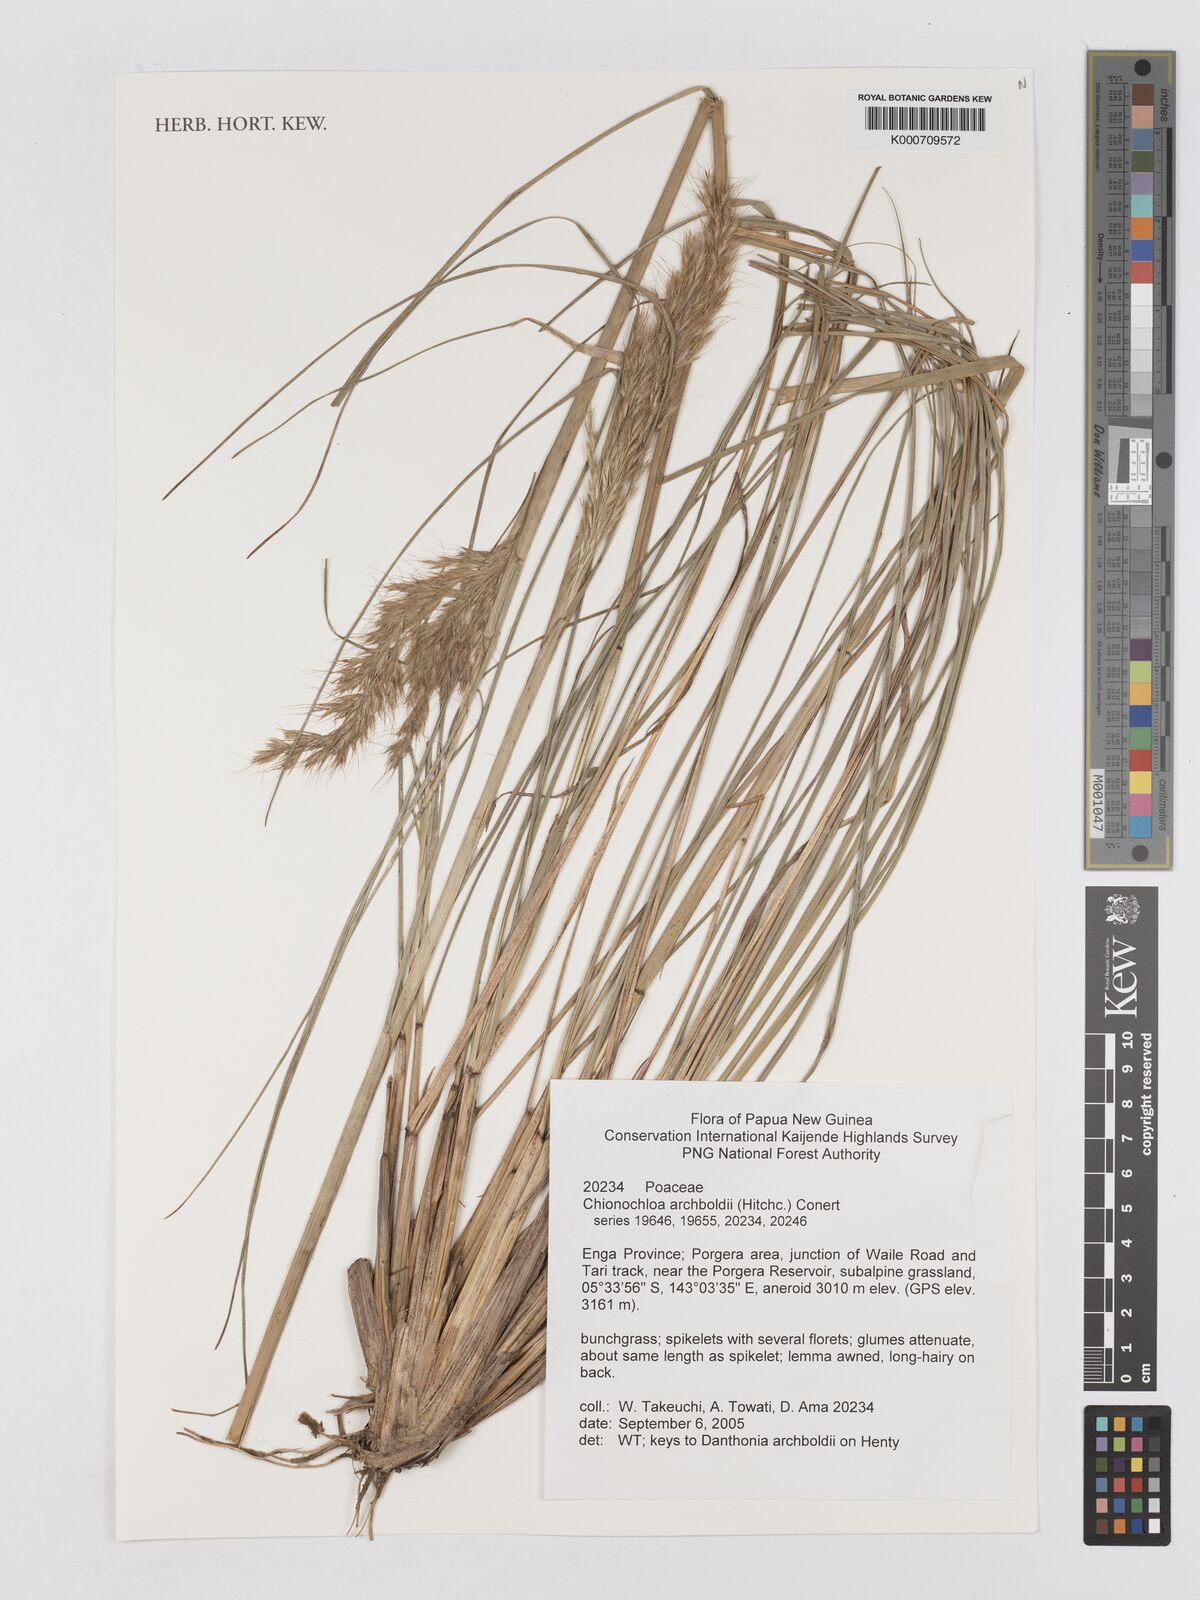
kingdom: Plantae
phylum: Tracheophyta
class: Liliopsida
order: Poales
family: Poaceae
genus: Chimaerochloa
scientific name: Chimaerochloa archboldii
